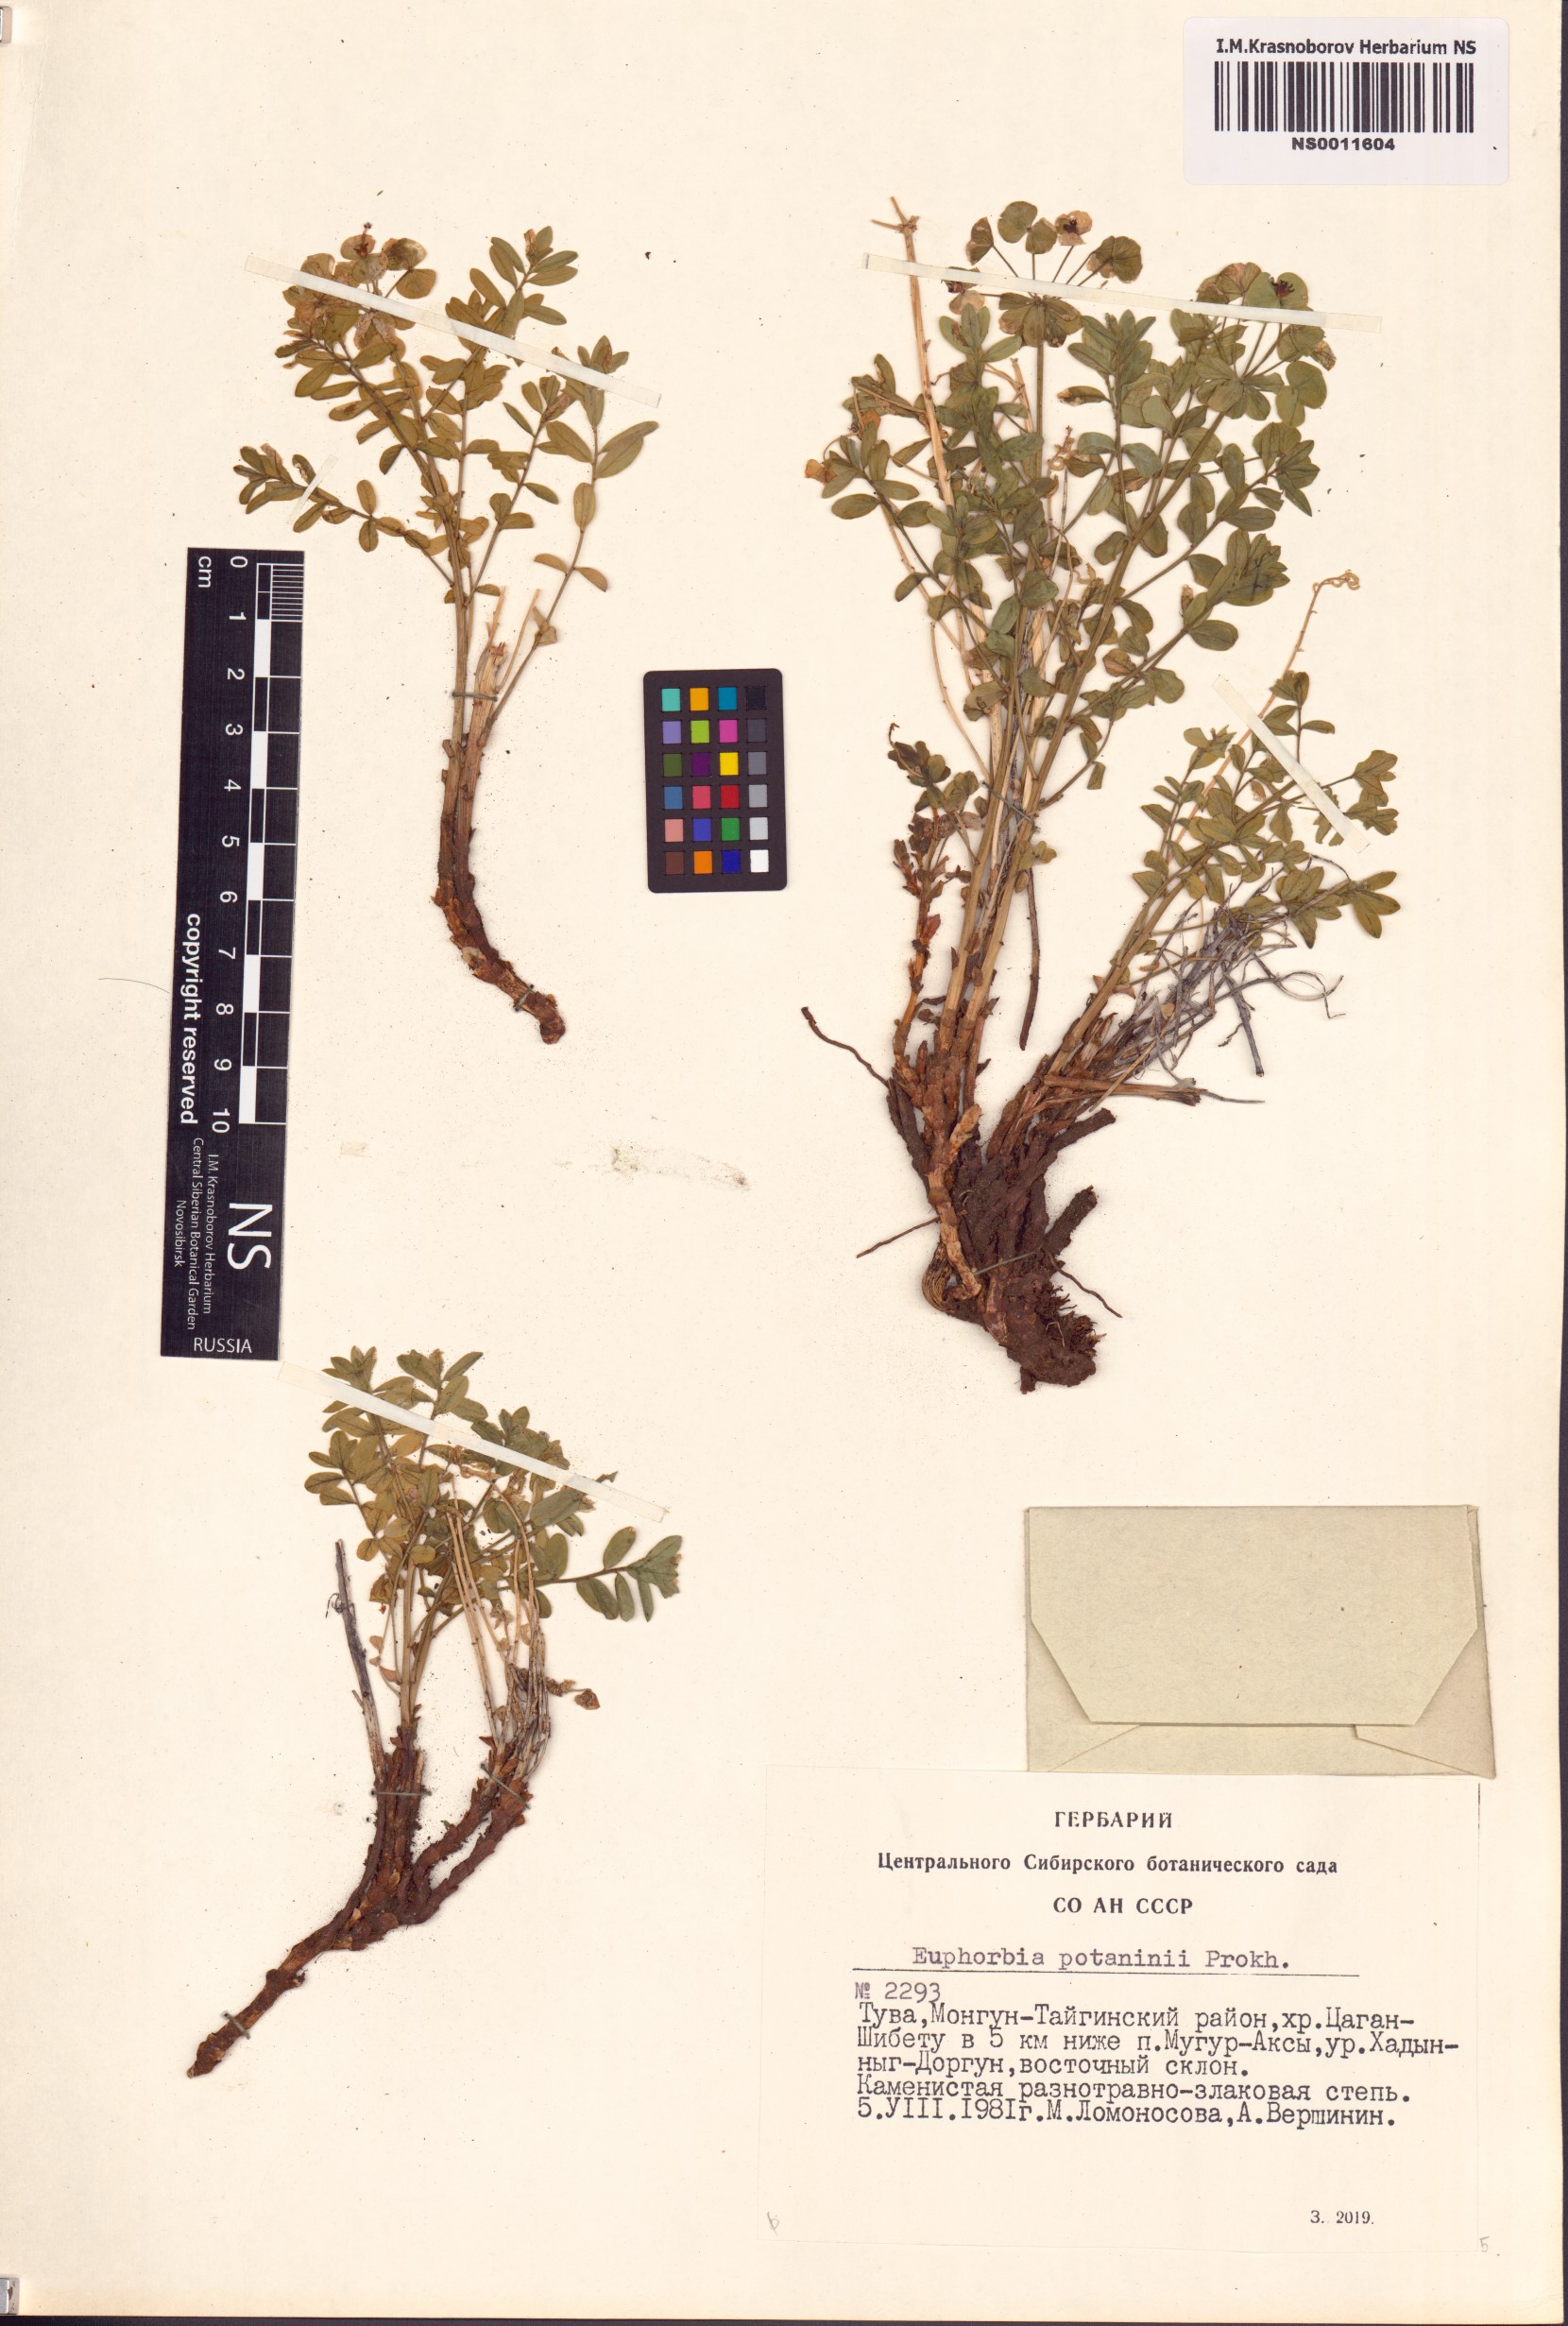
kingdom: Plantae
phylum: Tracheophyta
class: Magnoliopsida
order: Malpighiales
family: Euphorbiaceae
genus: Euphorbia
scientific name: Euphorbia potaninii
